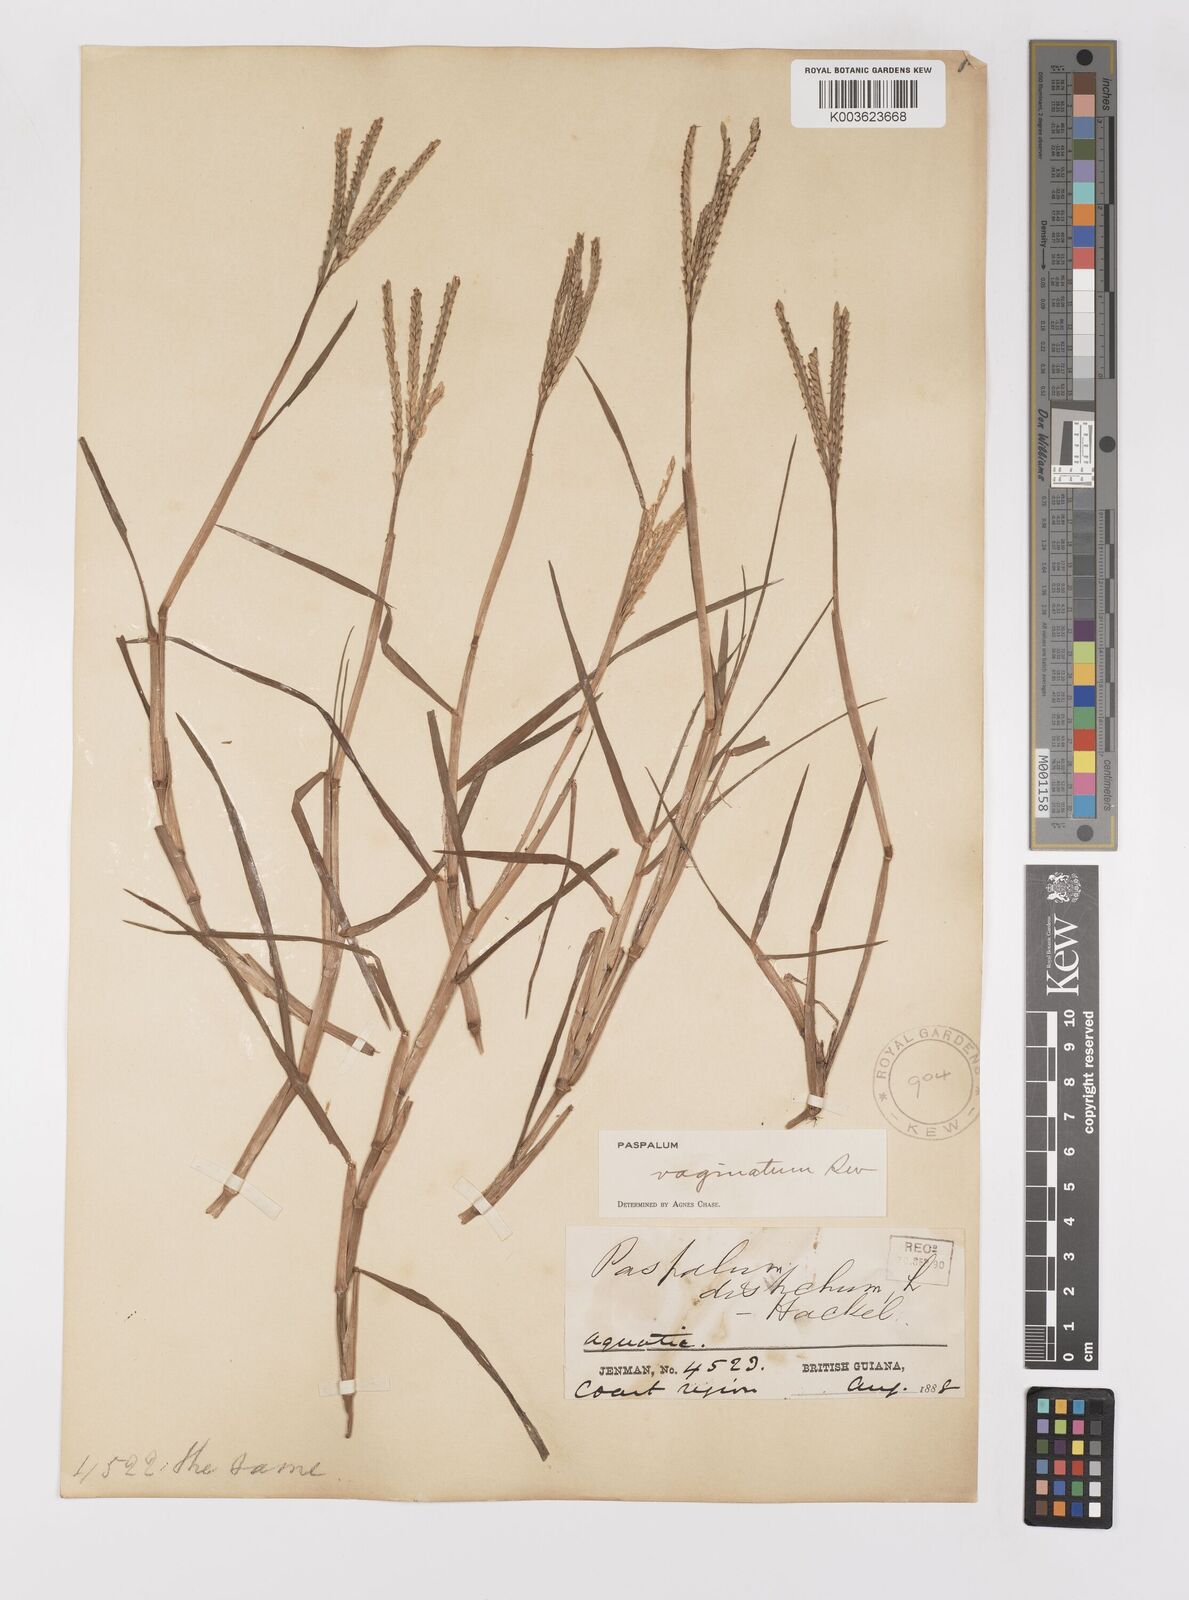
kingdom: Plantae
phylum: Tracheophyta
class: Liliopsida
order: Poales
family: Poaceae
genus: Paspalum
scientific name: Paspalum vaginatum
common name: Seashore paspalum
